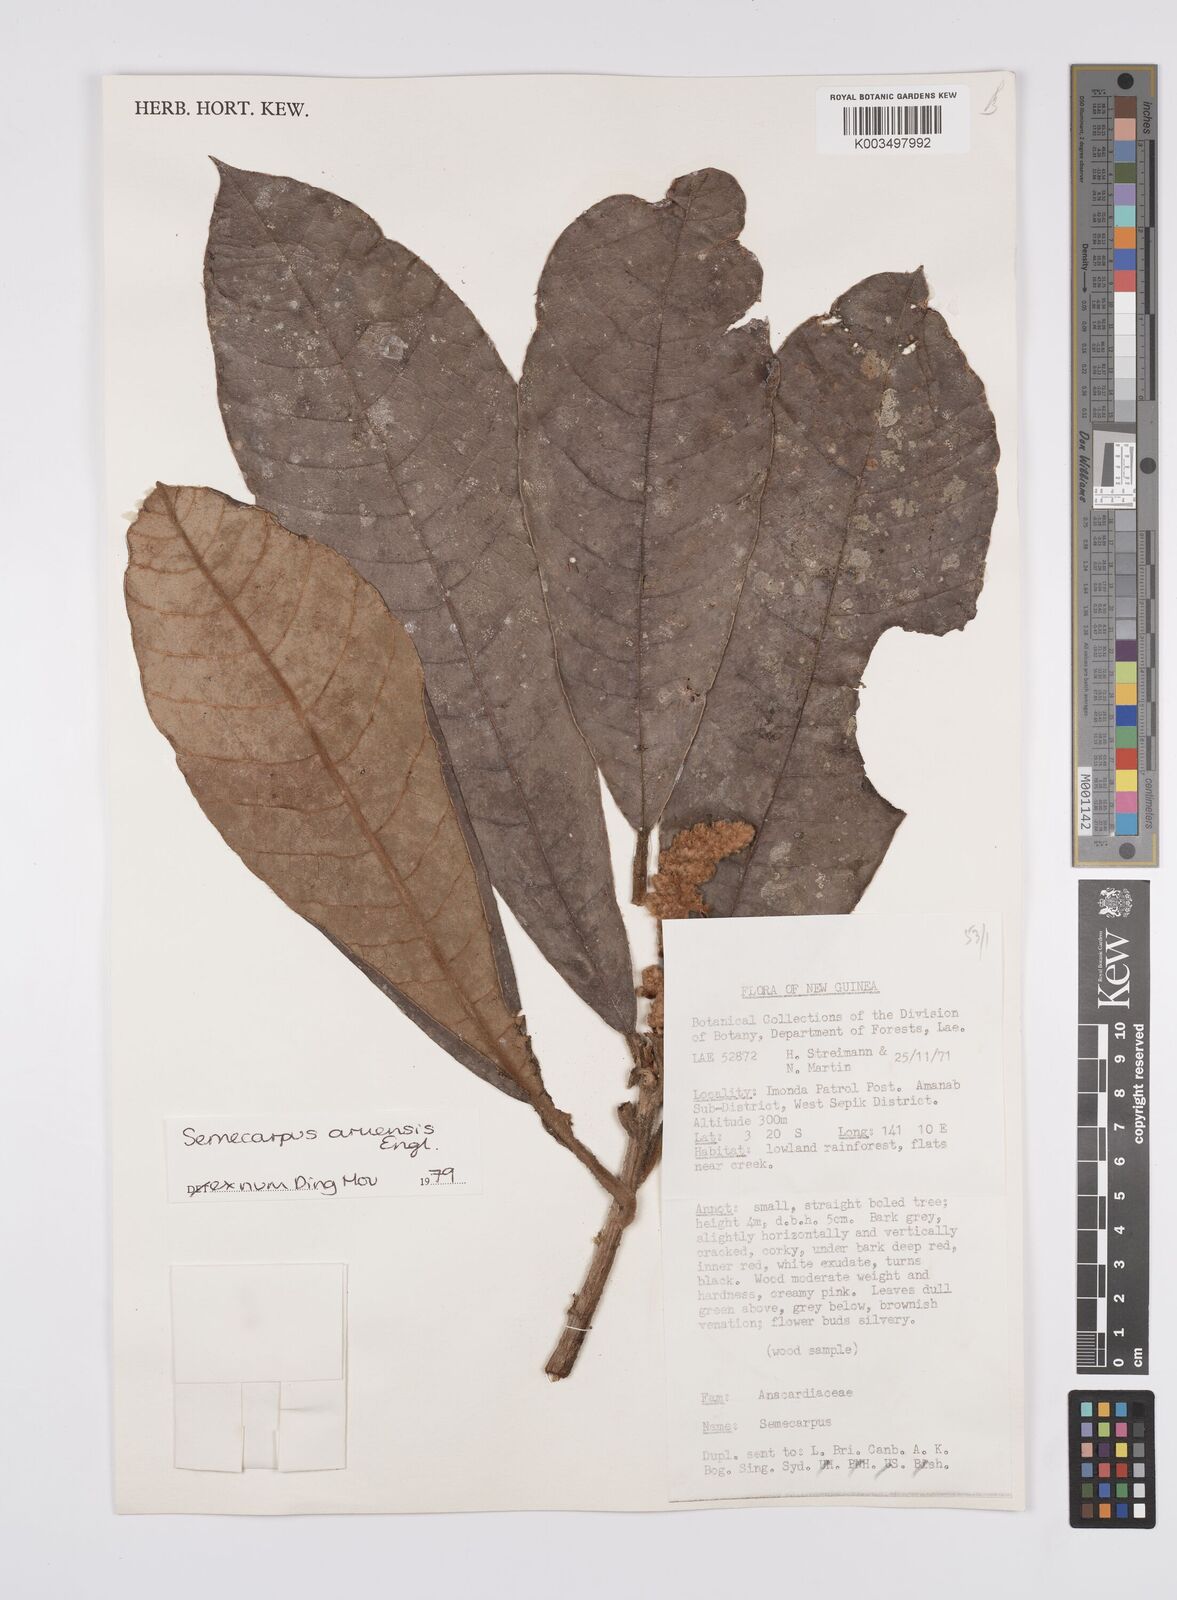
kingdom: Plantae
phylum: Tracheophyta
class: Magnoliopsida
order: Sapindales
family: Anacardiaceae
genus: Semecarpus
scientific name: Semecarpus aruensis
